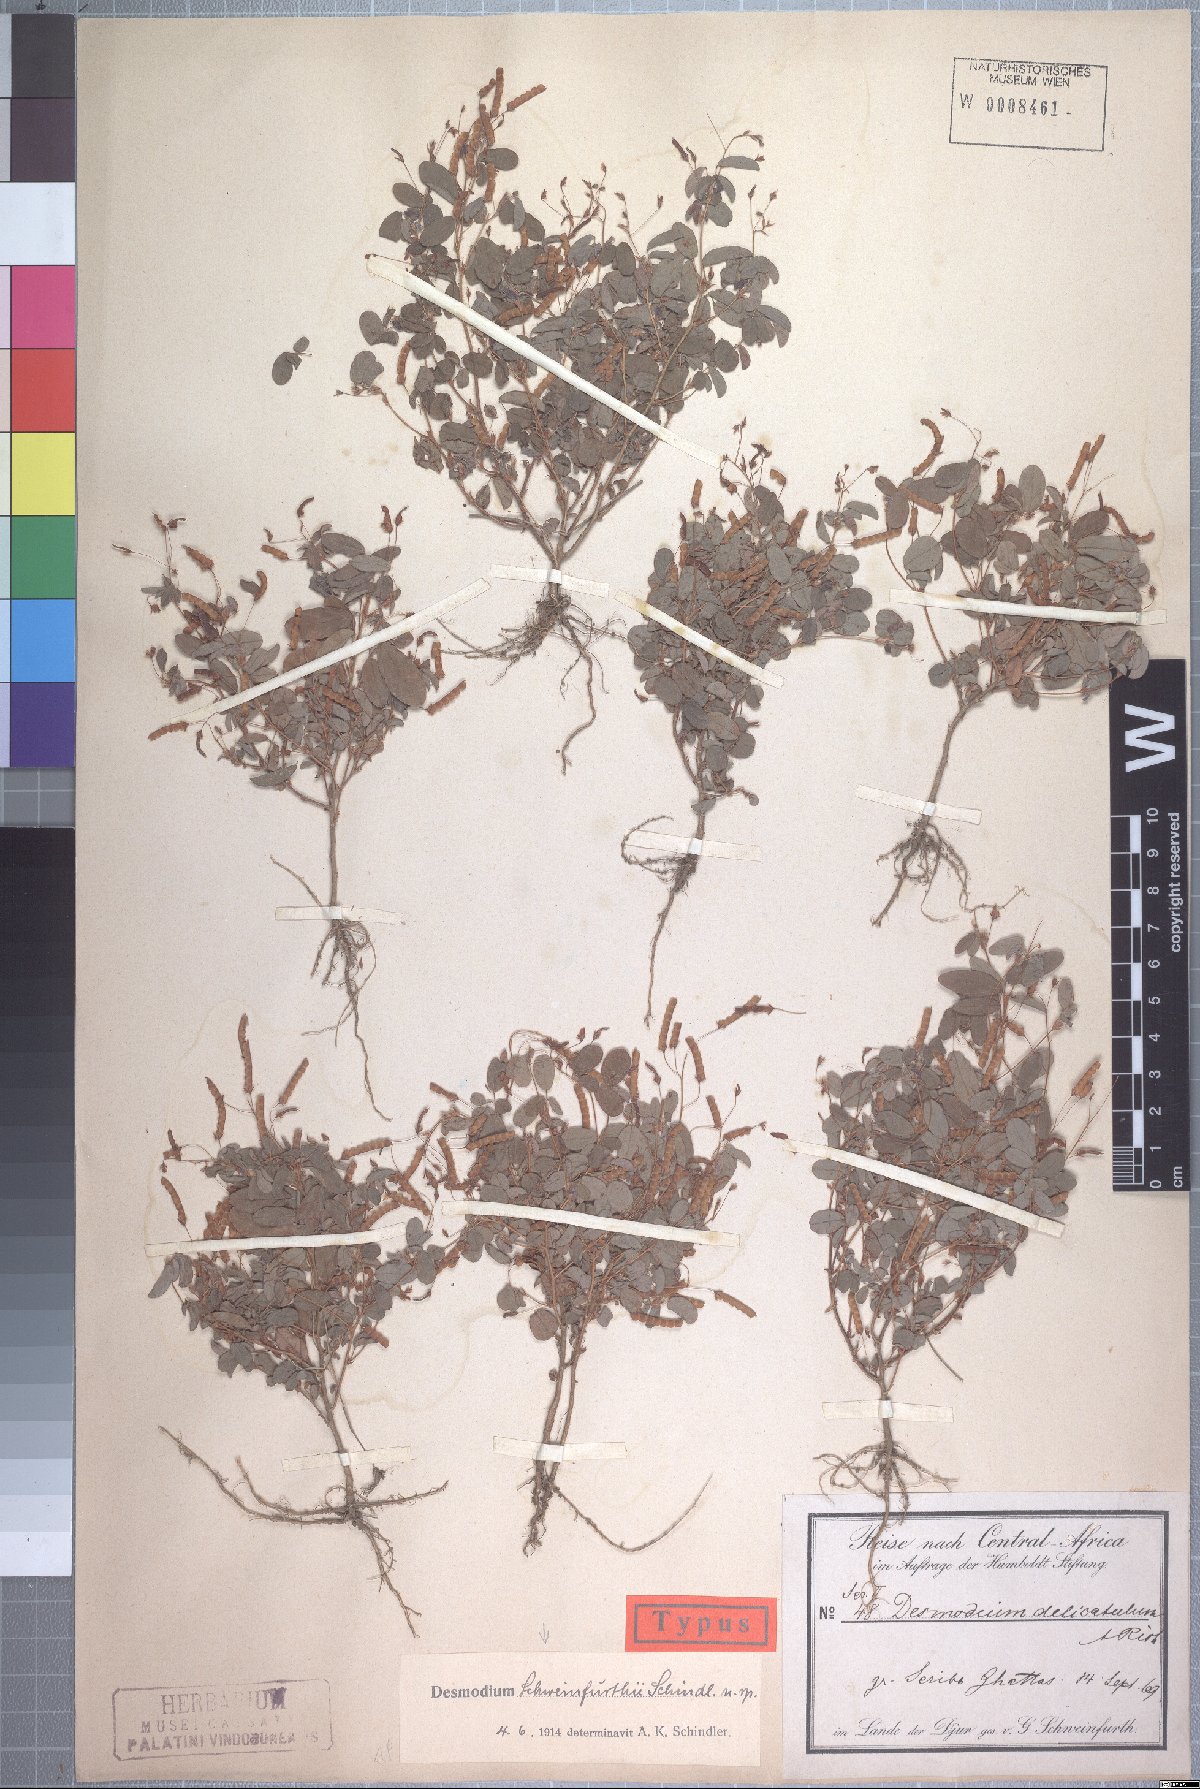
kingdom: Plantae
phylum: Tracheophyta
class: Magnoliopsida
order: Fabales
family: Fabaceae
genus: Grona
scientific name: Grona schweinfurthii
